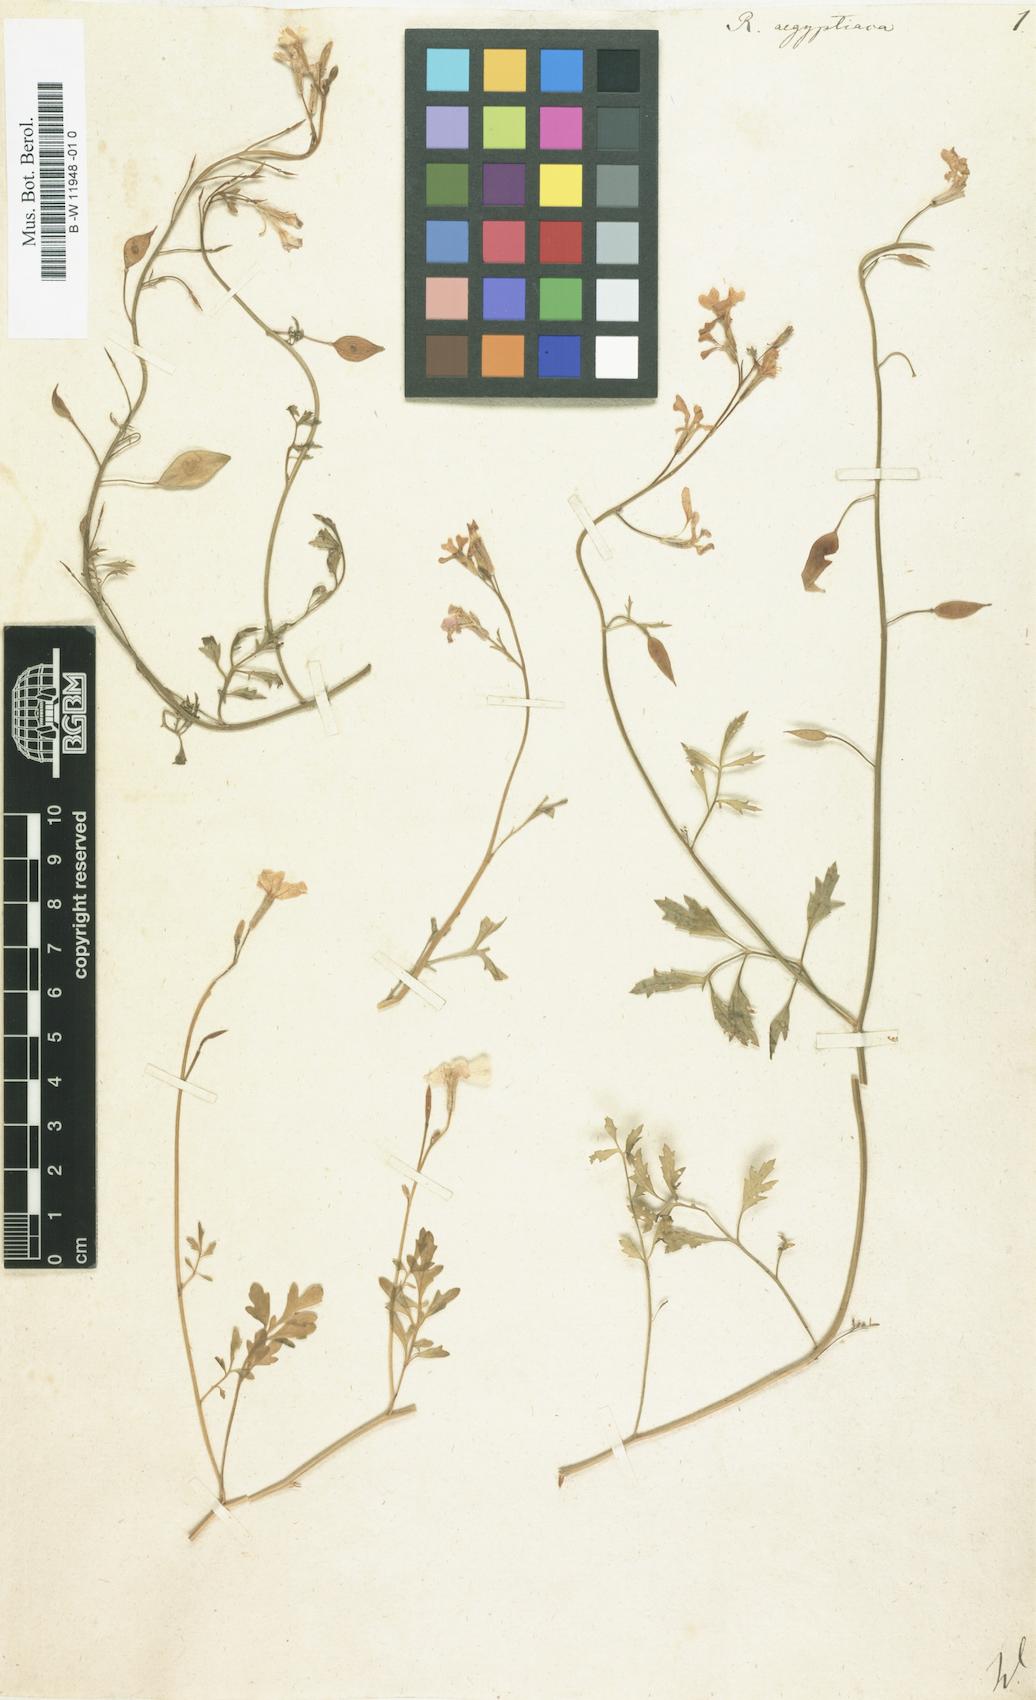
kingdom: Plantae
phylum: Tracheophyta
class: Magnoliopsida
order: Brassicales
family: Brassicaceae
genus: Ricotia
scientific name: Ricotia lunaria
